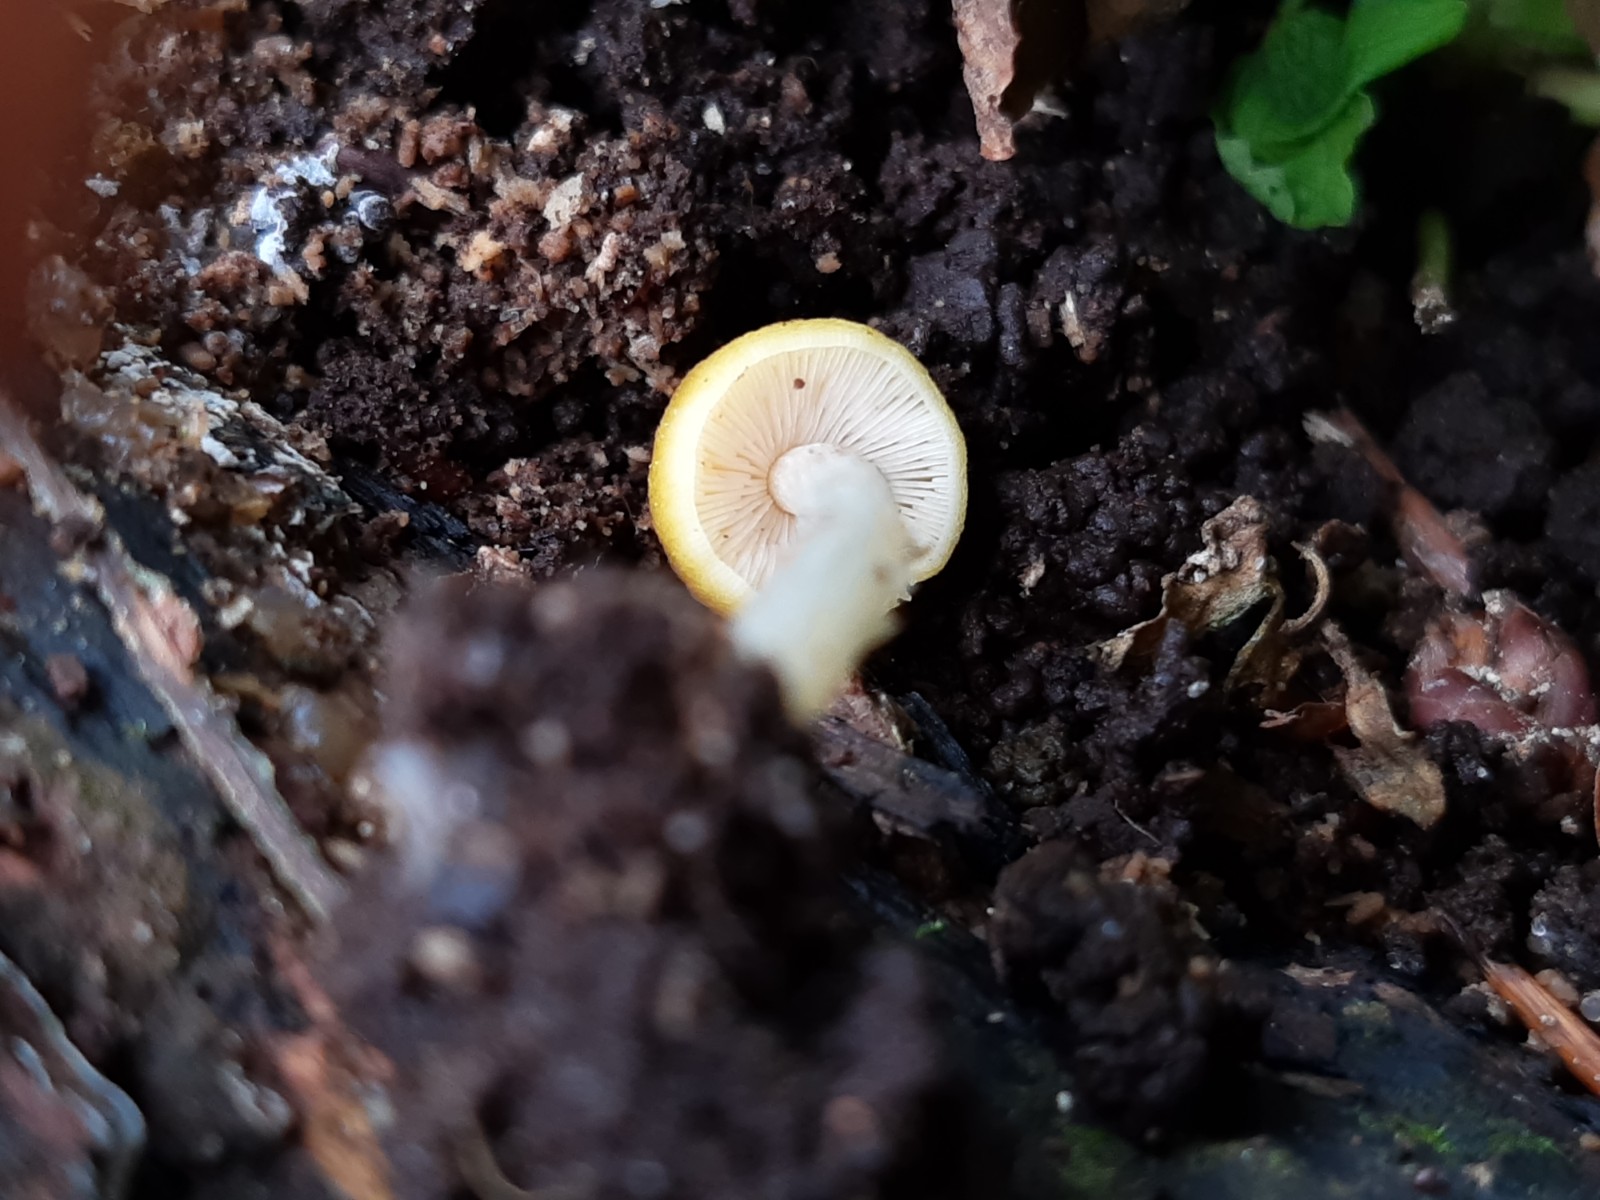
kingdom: Fungi
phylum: Basidiomycota
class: Agaricomycetes
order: Agaricales
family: Bolbitiaceae
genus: Bolbitius
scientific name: Bolbitius titubans
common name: almindelig gulhat
